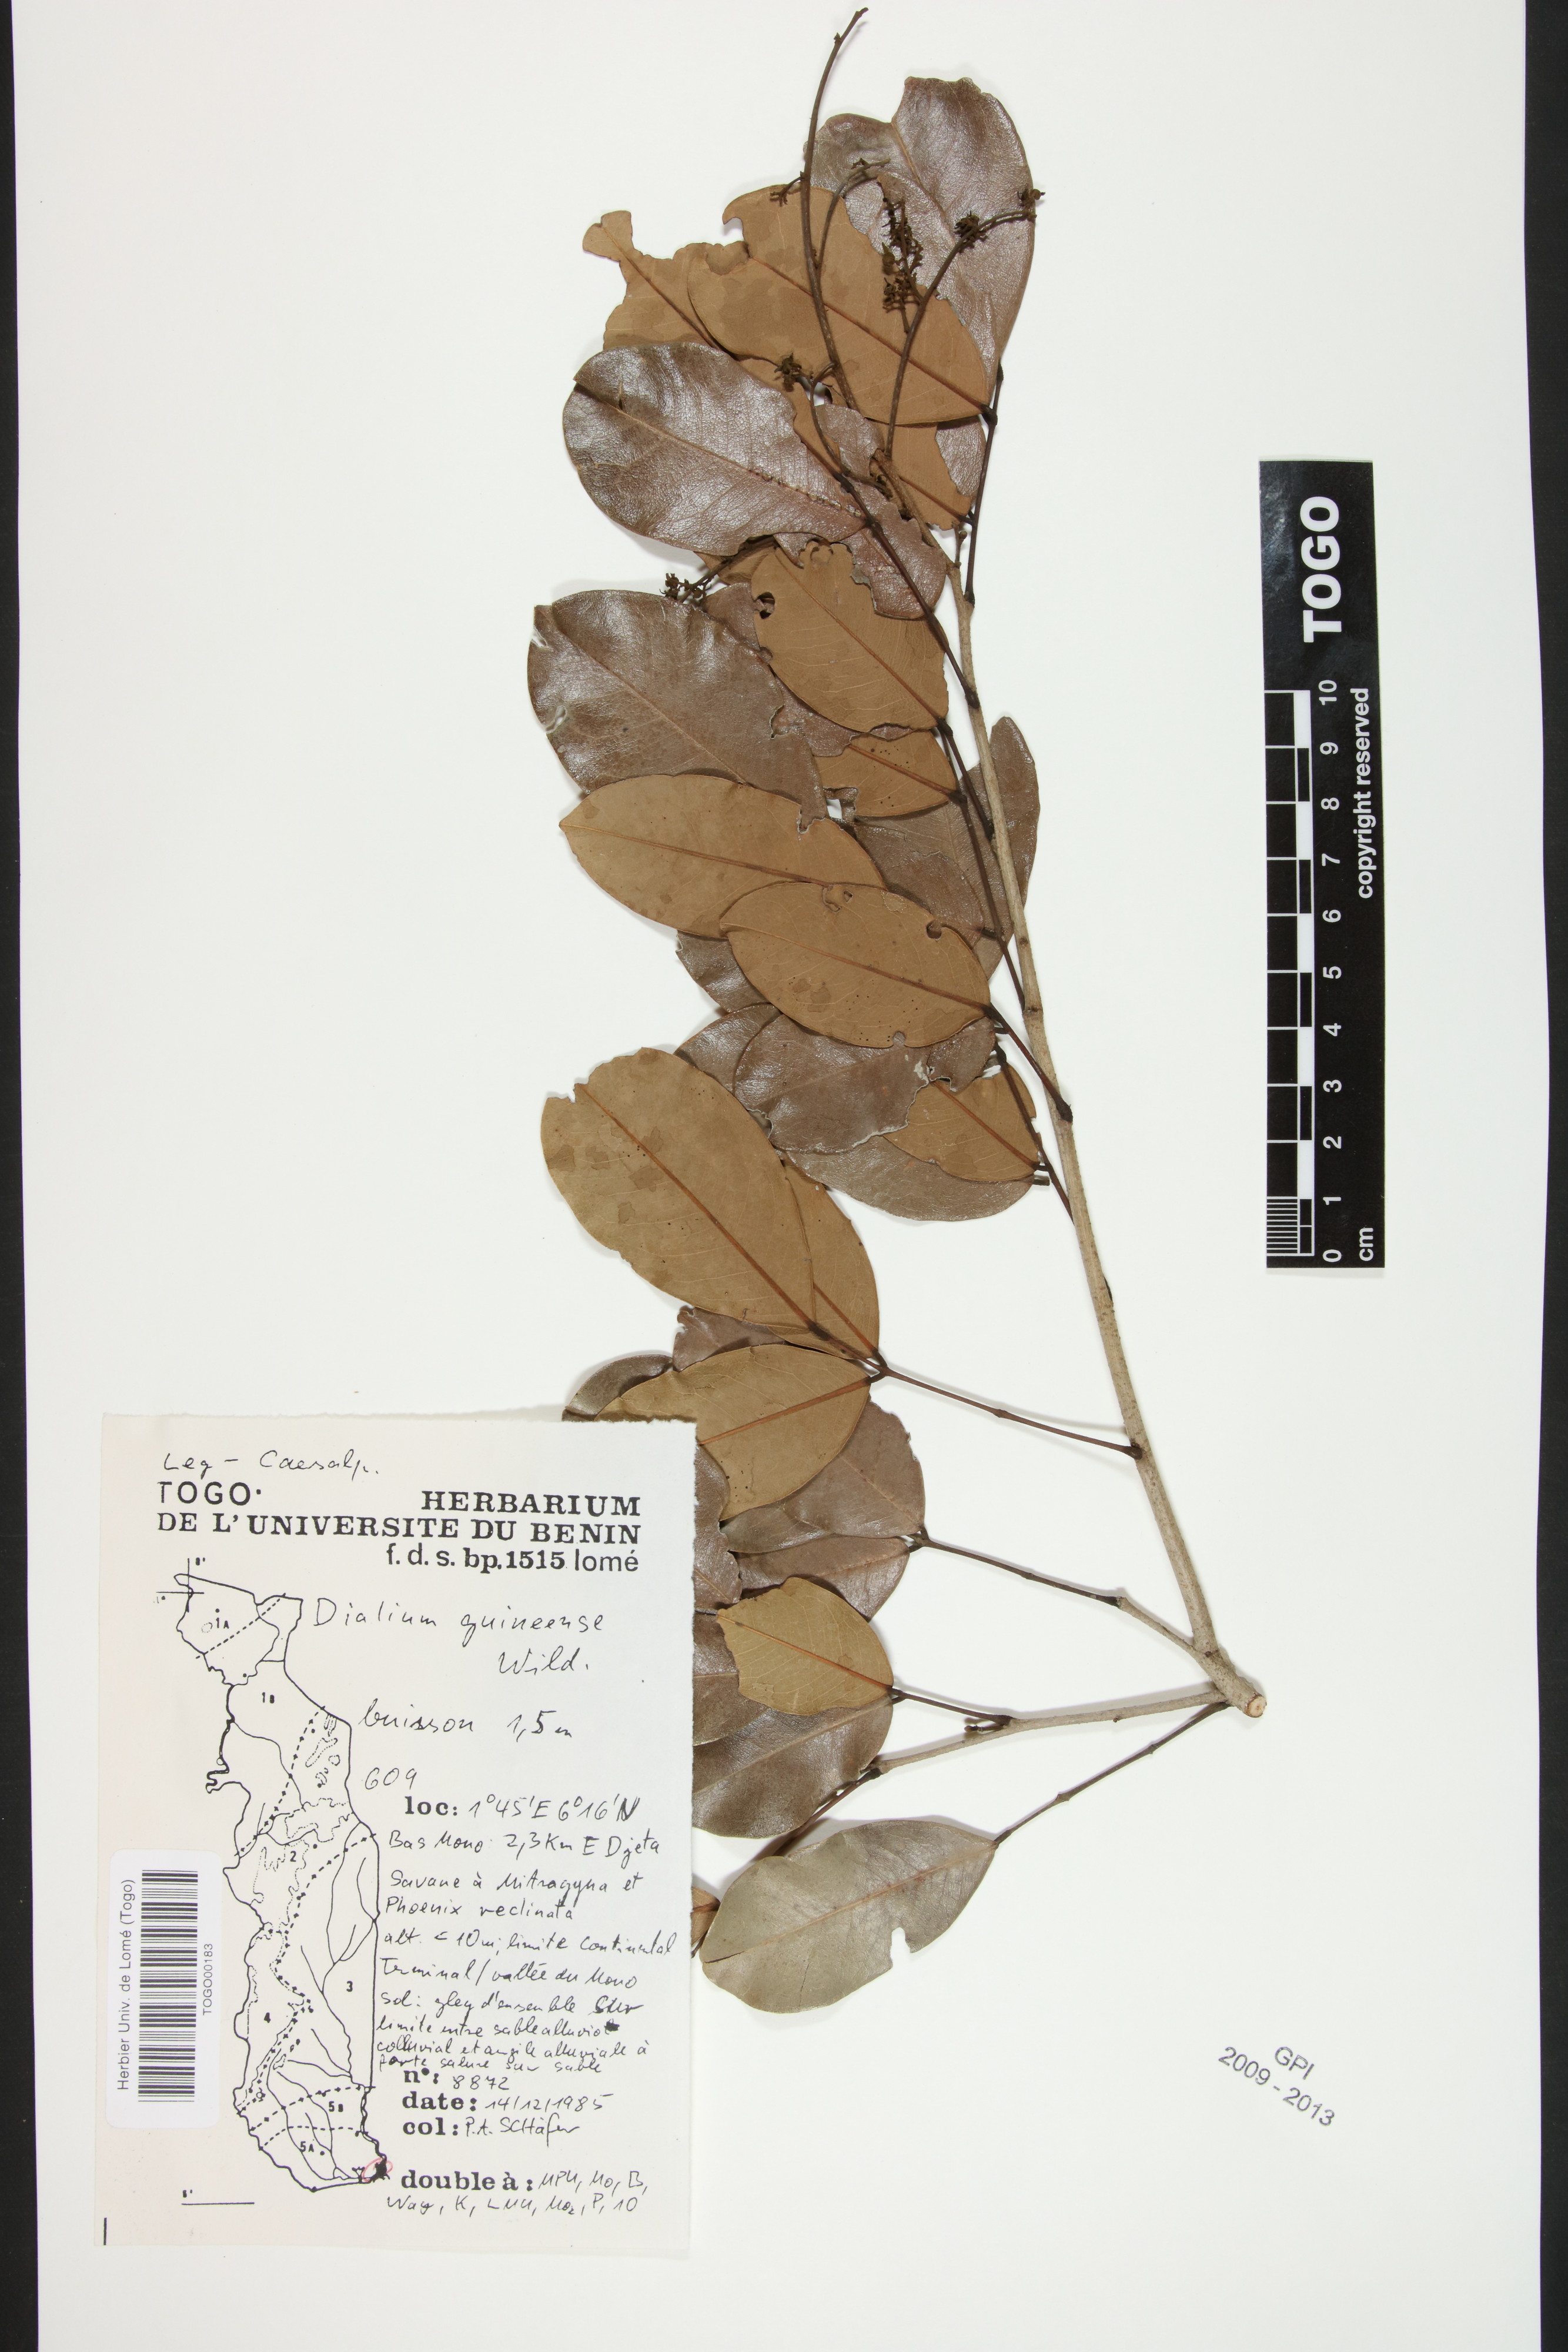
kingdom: Plantae
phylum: Tracheophyta
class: Magnoliopsida
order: Fabales
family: Fabaceae
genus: Dialium
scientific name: Dialium guineense
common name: Sierra leone-tamarind
